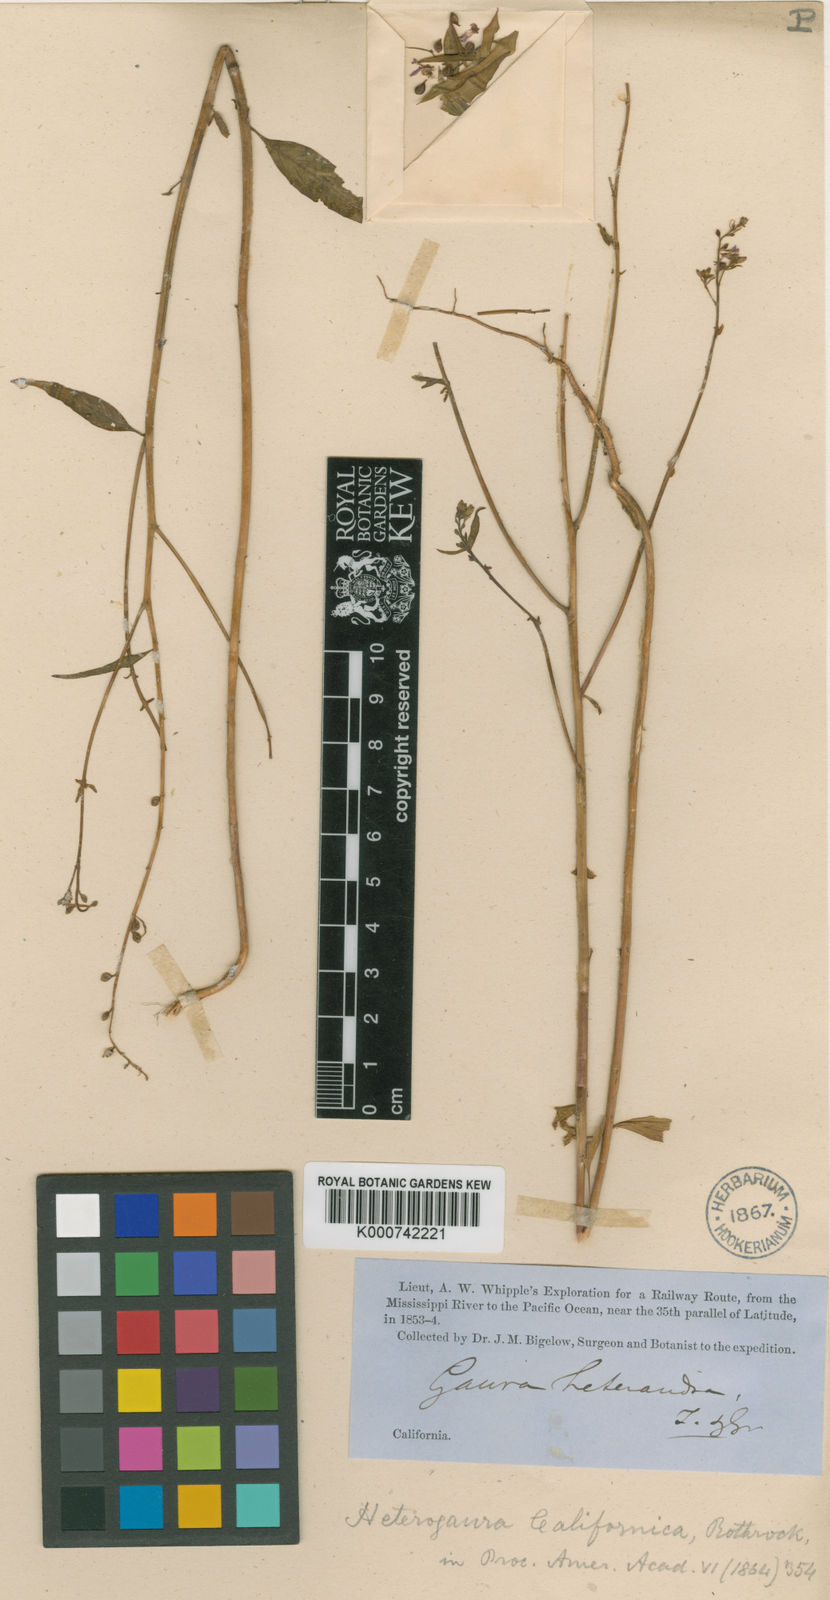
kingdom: Plantae
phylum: Tracheophyta
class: Magnoliopsida
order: Myrtales
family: Onagraceae
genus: Chylismia
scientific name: Chylismia specicola
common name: Kaibab suncup
